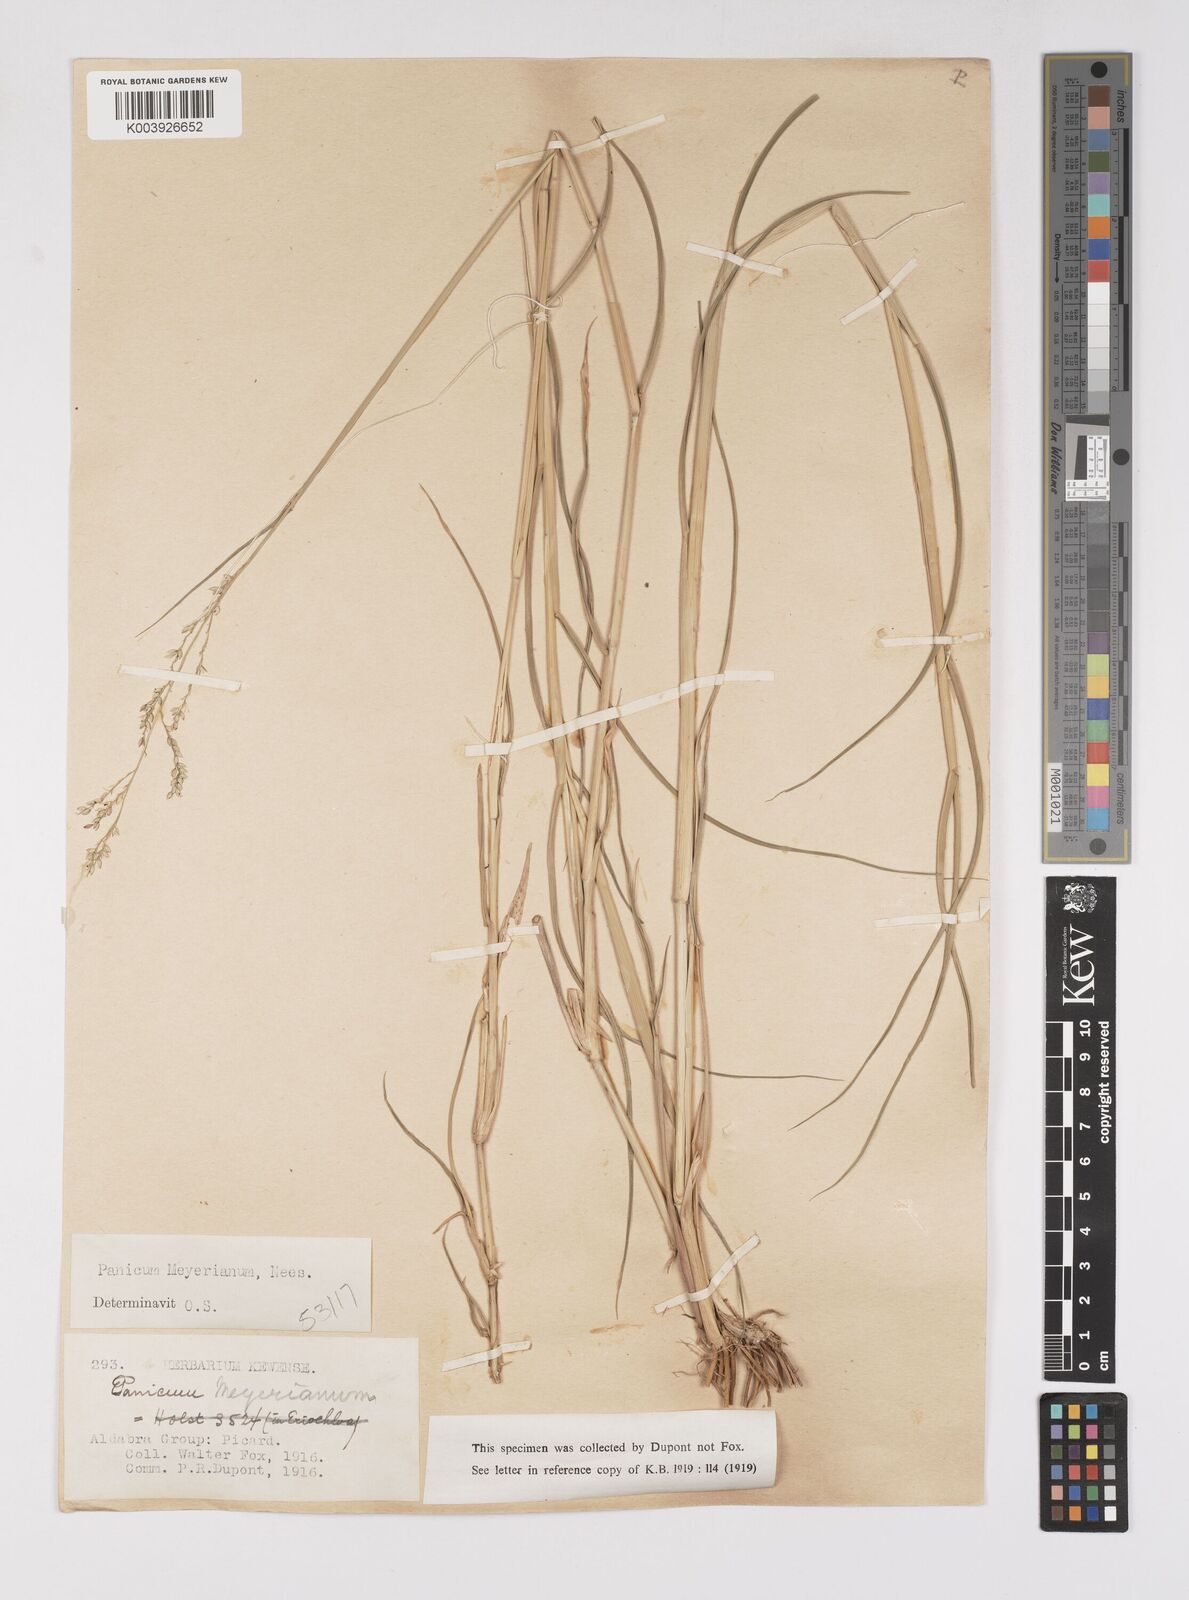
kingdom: Plantae
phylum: Tracheophyta
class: Liliopsida
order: Poales
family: Poaceae
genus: Eriochloa
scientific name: Eriochloa meyeriana
